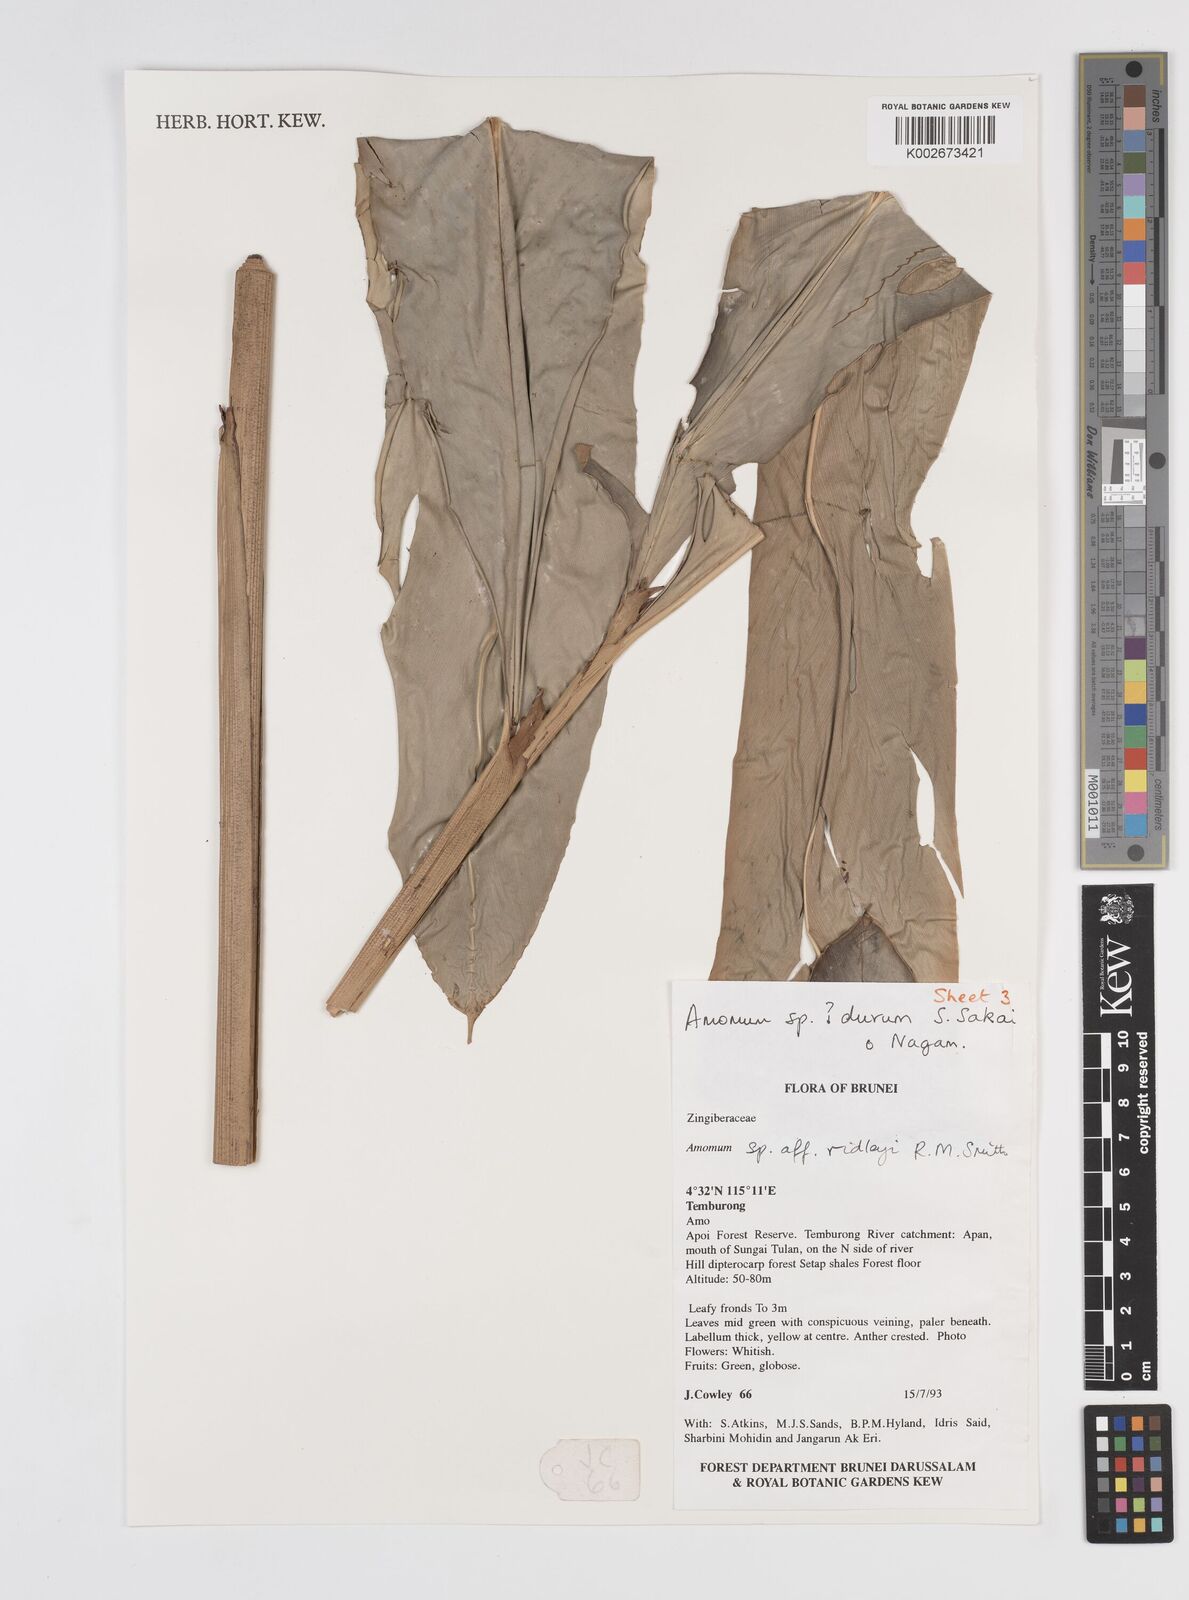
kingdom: Plantae
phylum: Tracheophyta
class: Liliopsida
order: Zingiberales
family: Zingiberaceae
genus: Sundamomum
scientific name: Sundamomum durum
